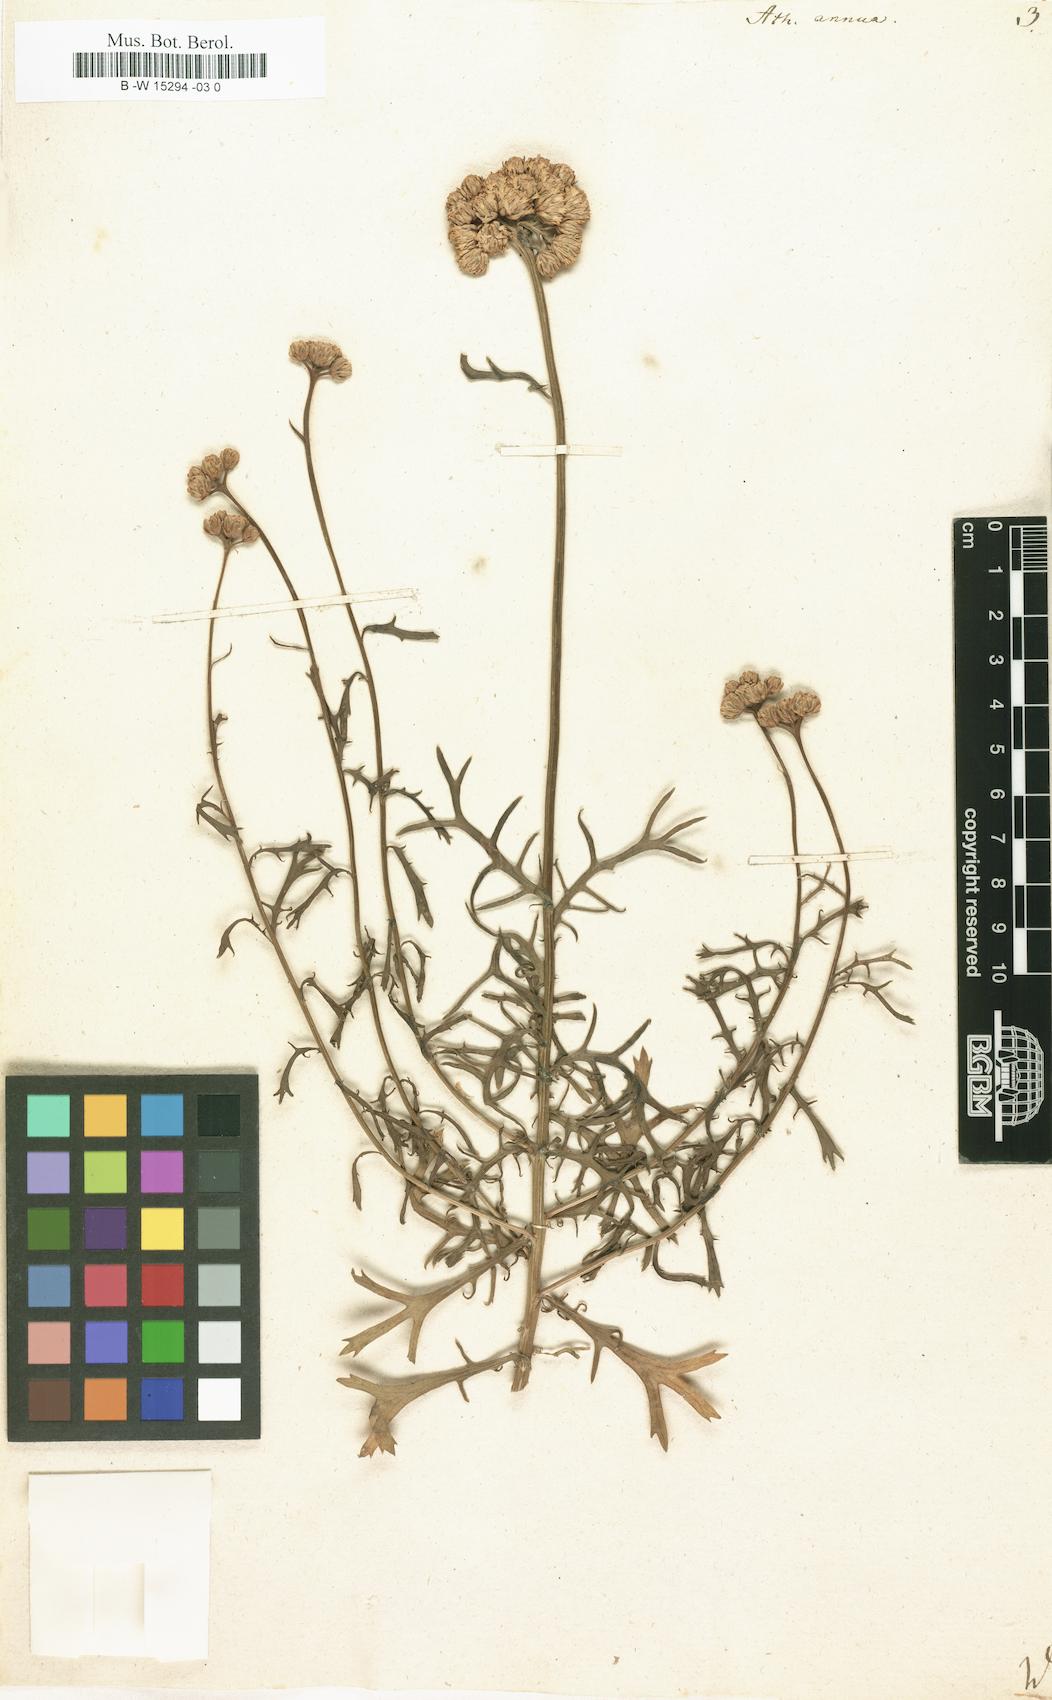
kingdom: Plantae
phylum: Tracheophyta
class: Magnoliopsida
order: Asterales
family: Asteraceae
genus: Lonas
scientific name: Lonas annua
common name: African daisy
